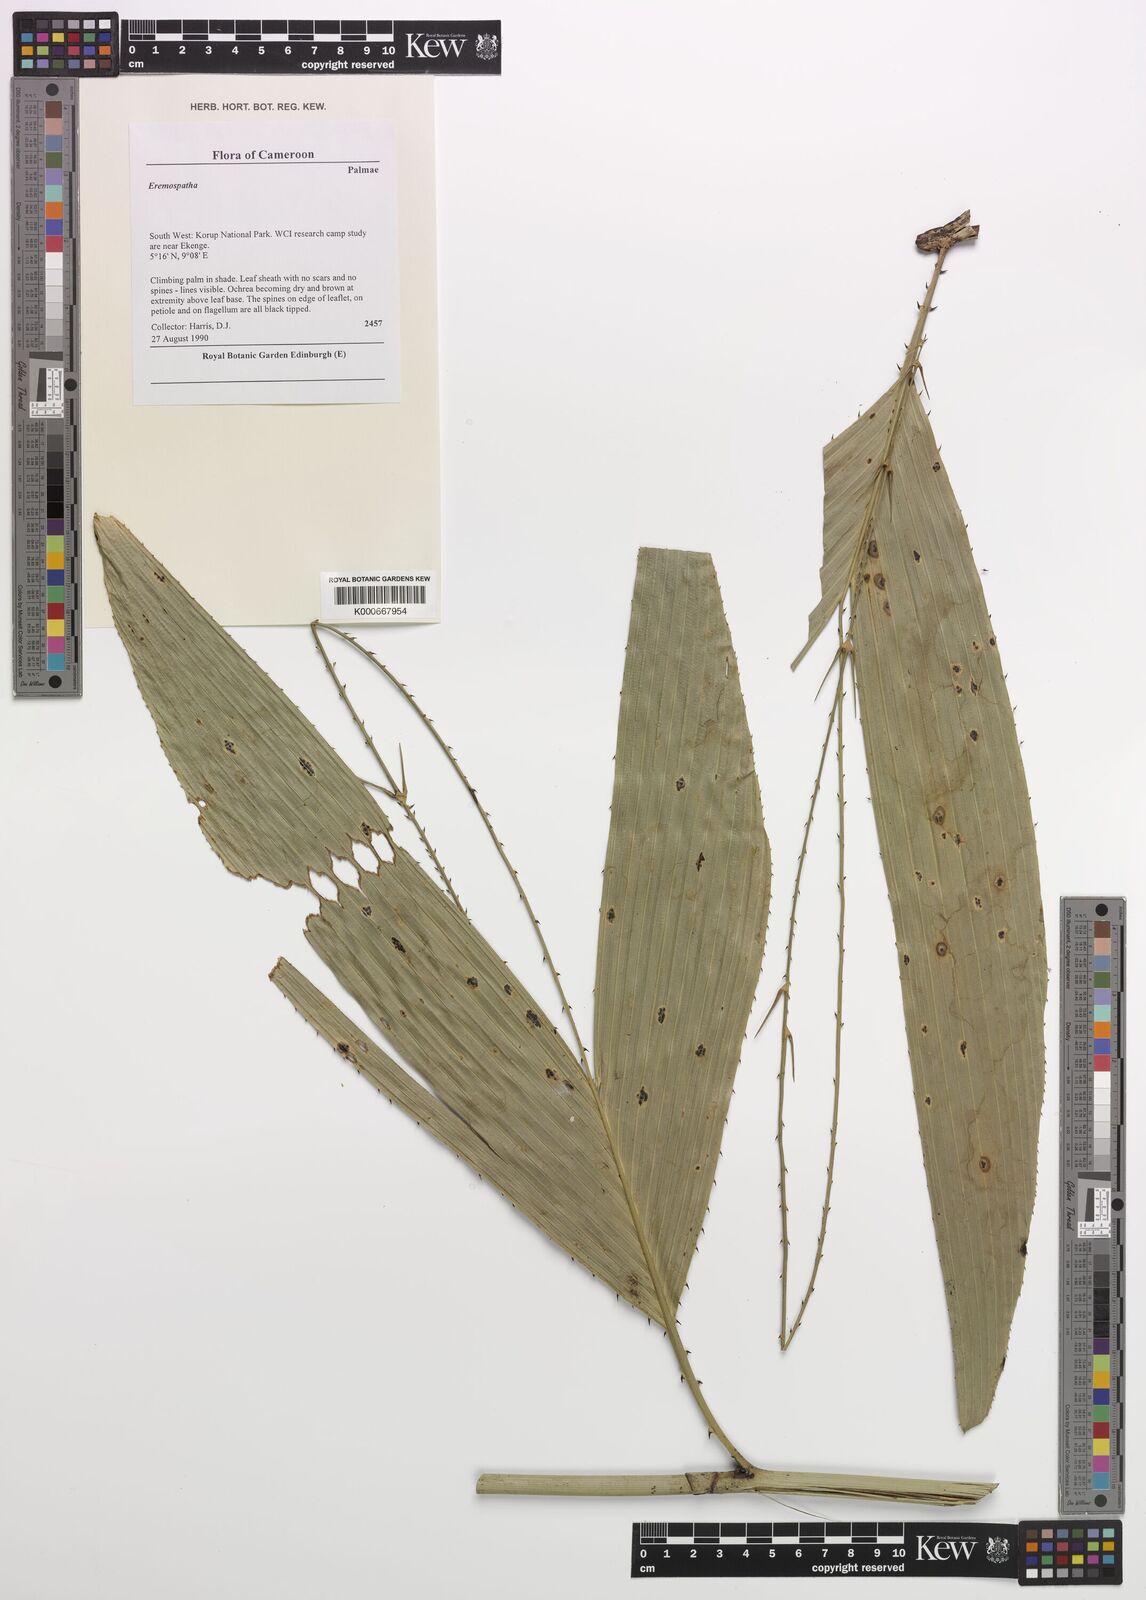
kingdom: Plantae
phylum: Tracheophyta
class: Liliopsida
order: Arecales
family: Arecaceae
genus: Eremospatha
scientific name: Eremospatha
